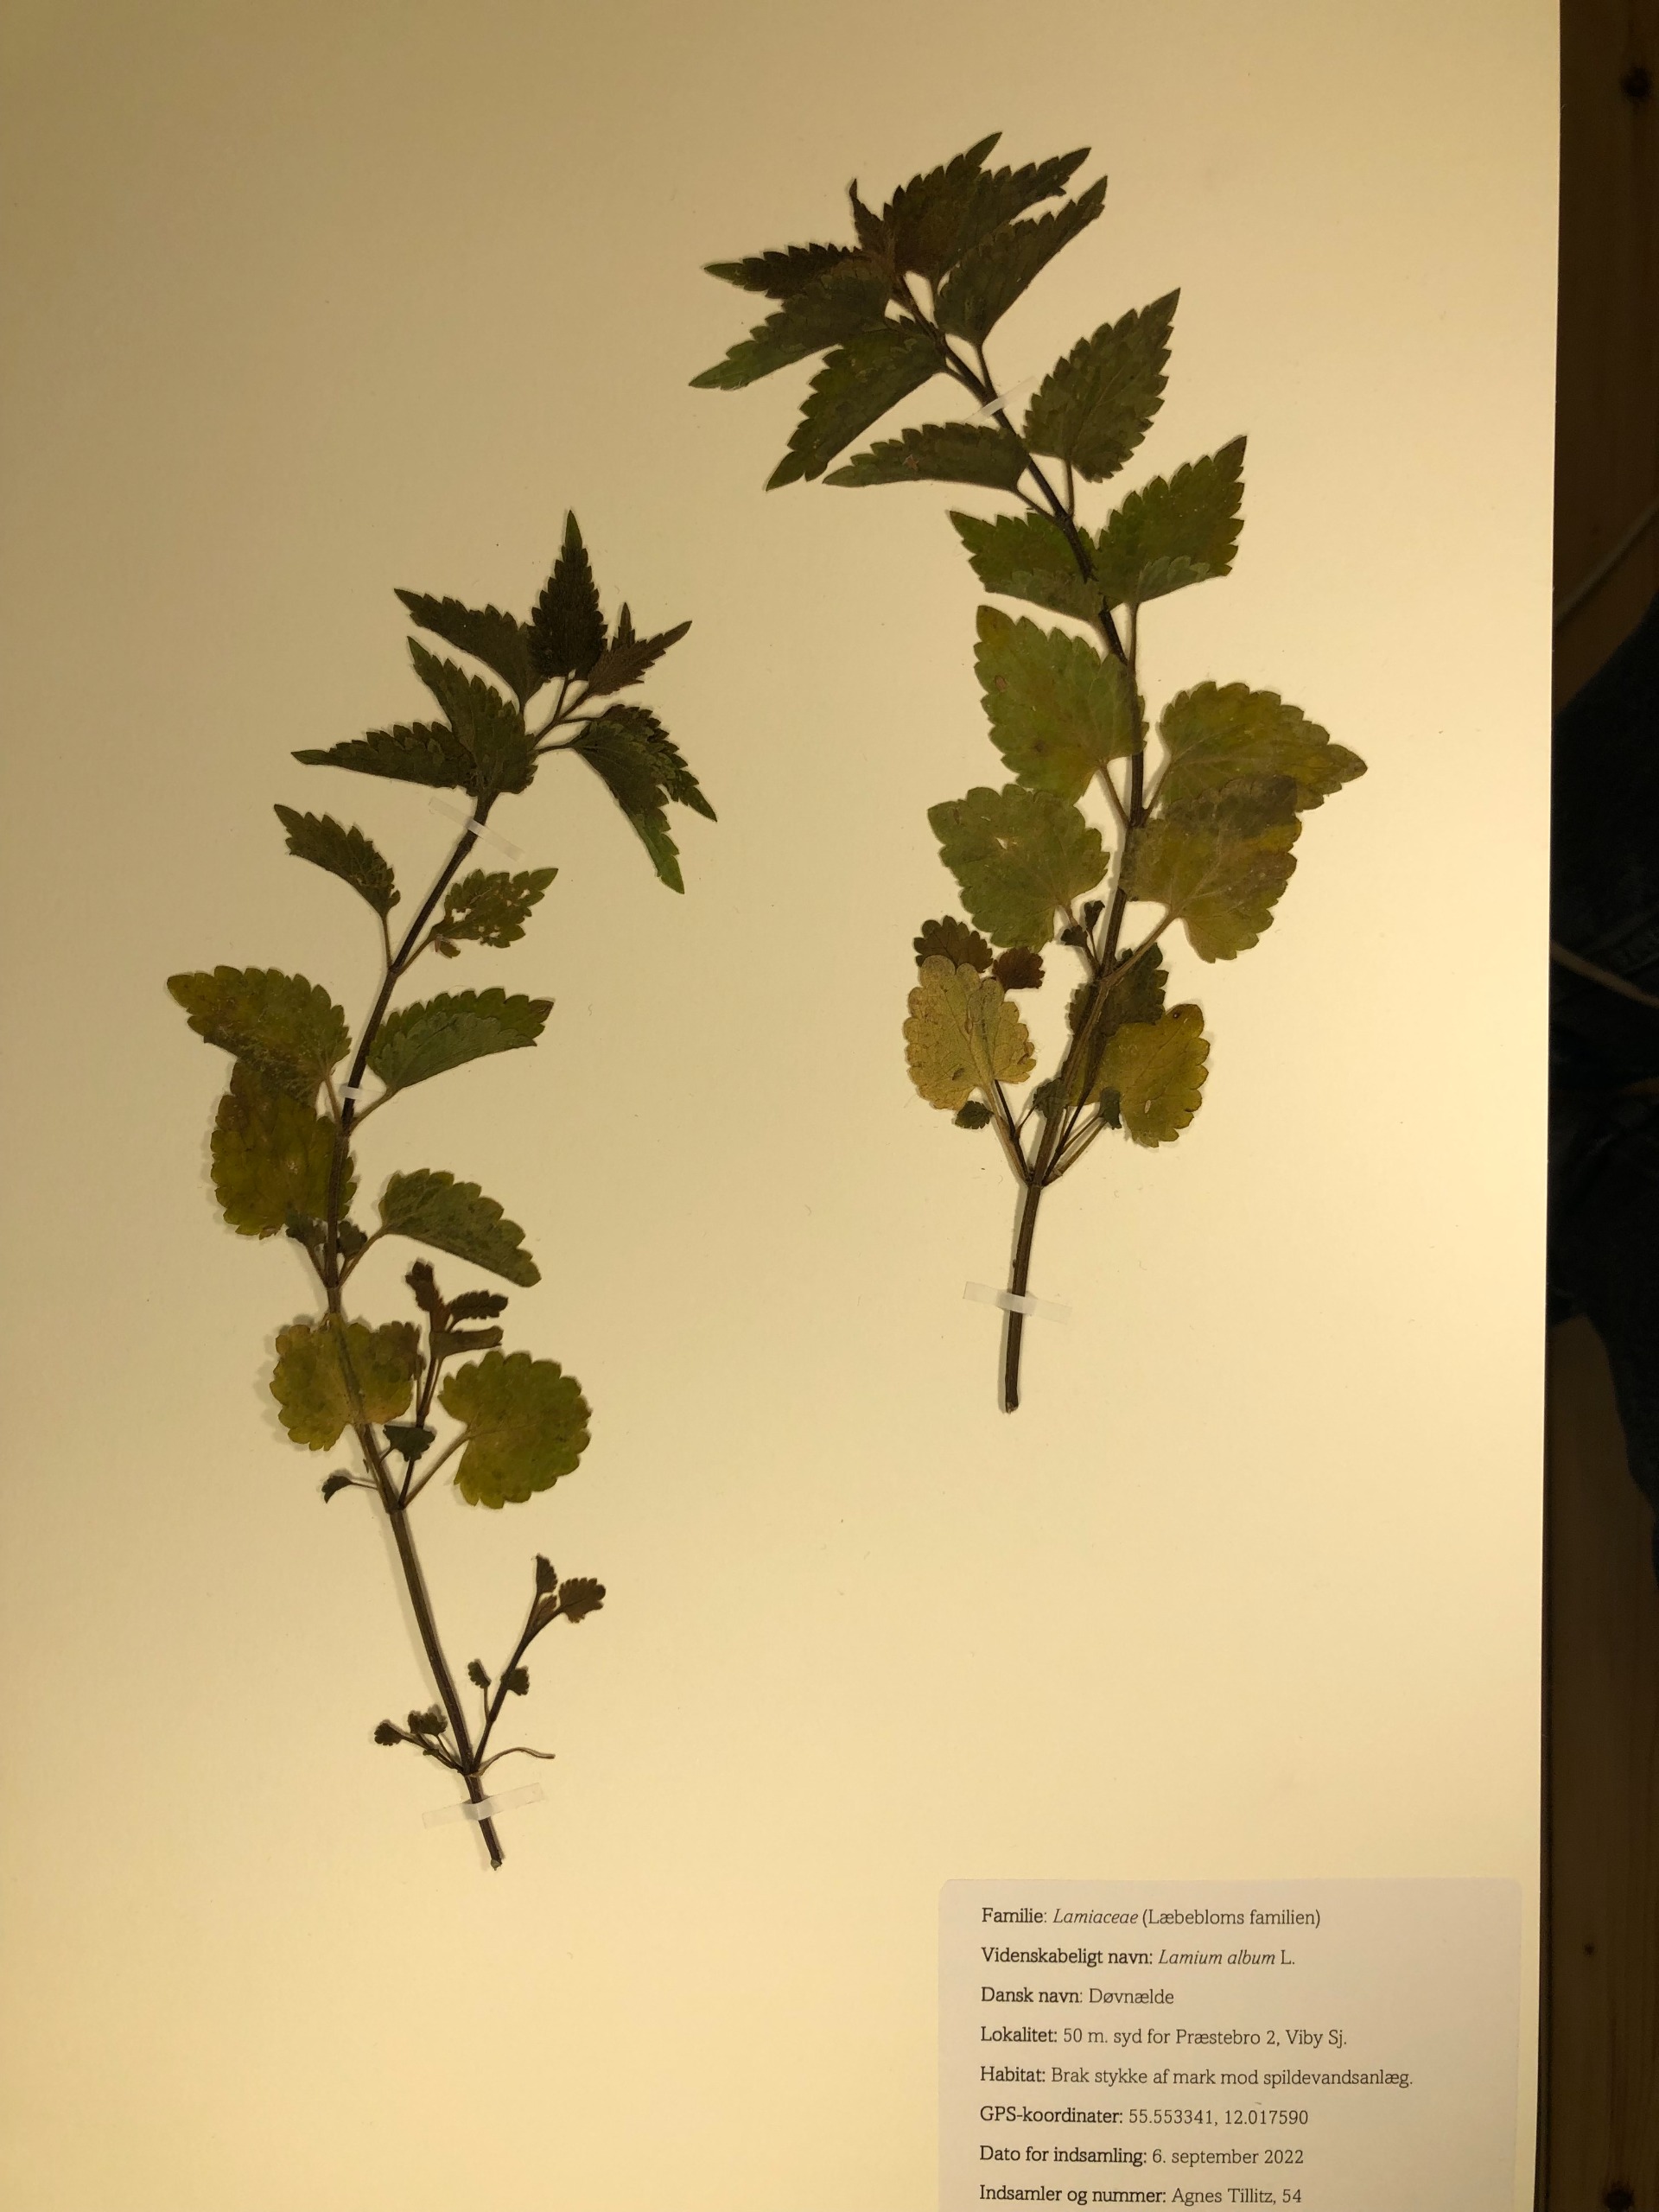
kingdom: Plantae
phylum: Tracheophyta
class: Magnoliopsida
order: Lamiales
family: Lamiaceae
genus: Lamium
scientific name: Lamium album
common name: Døvnælde
